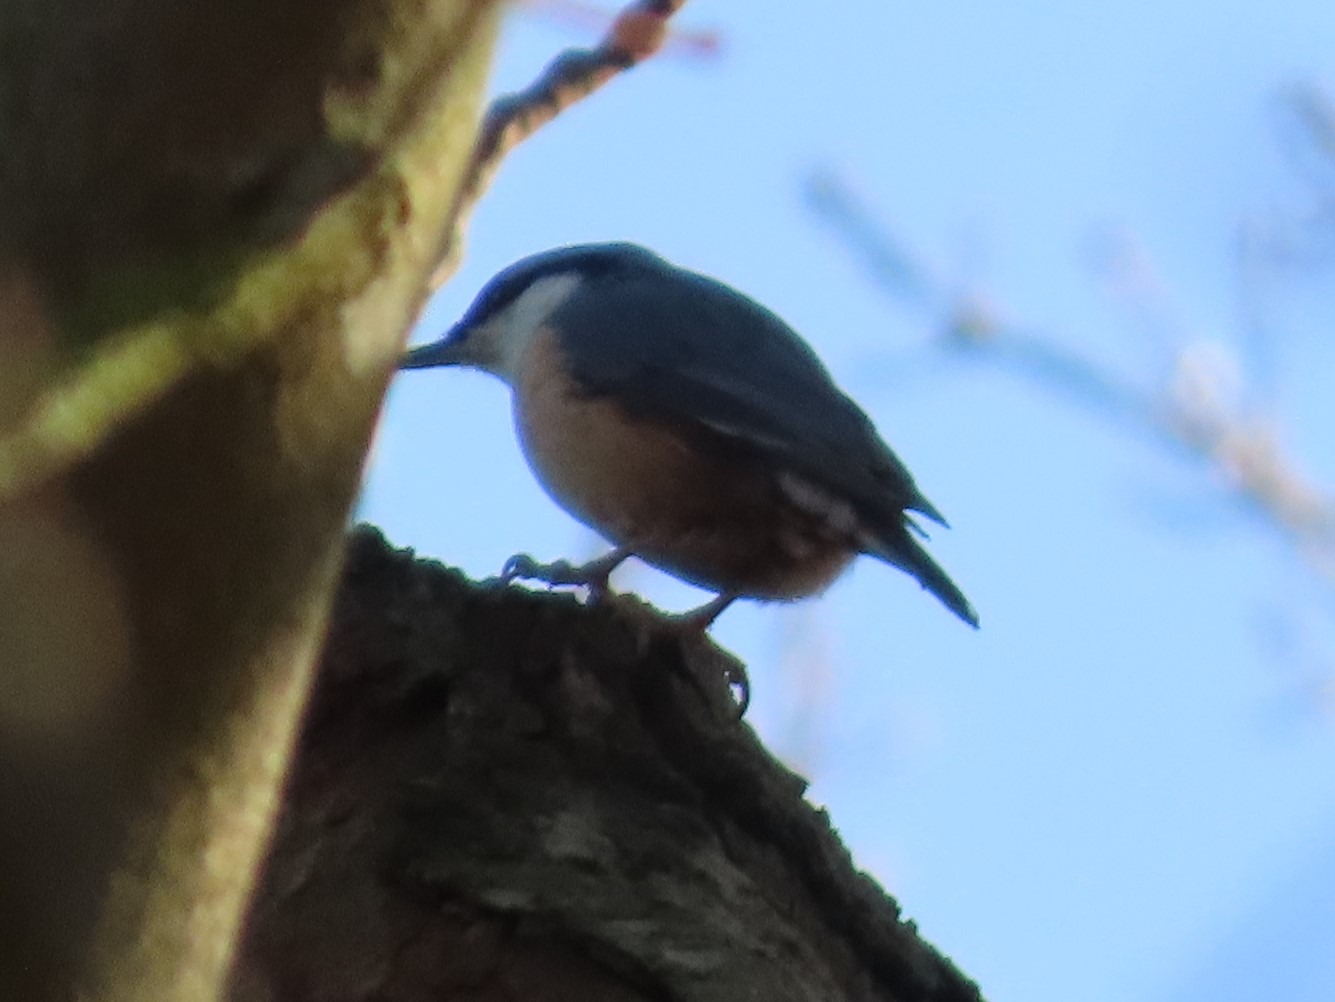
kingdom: Animalia
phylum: Chordata
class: Aves
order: Passeriformes
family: Sittidae
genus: Sitta
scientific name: Sitta europaea
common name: Spætmejse
